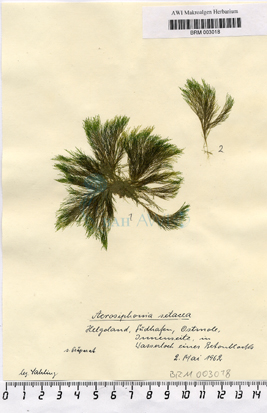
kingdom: Plantae
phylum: Chlorophyta
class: Ulvophyceae
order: Ulotrichales
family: Ulotrichaceae
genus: Acrosiphonia
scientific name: Acrosiphonia setacea
